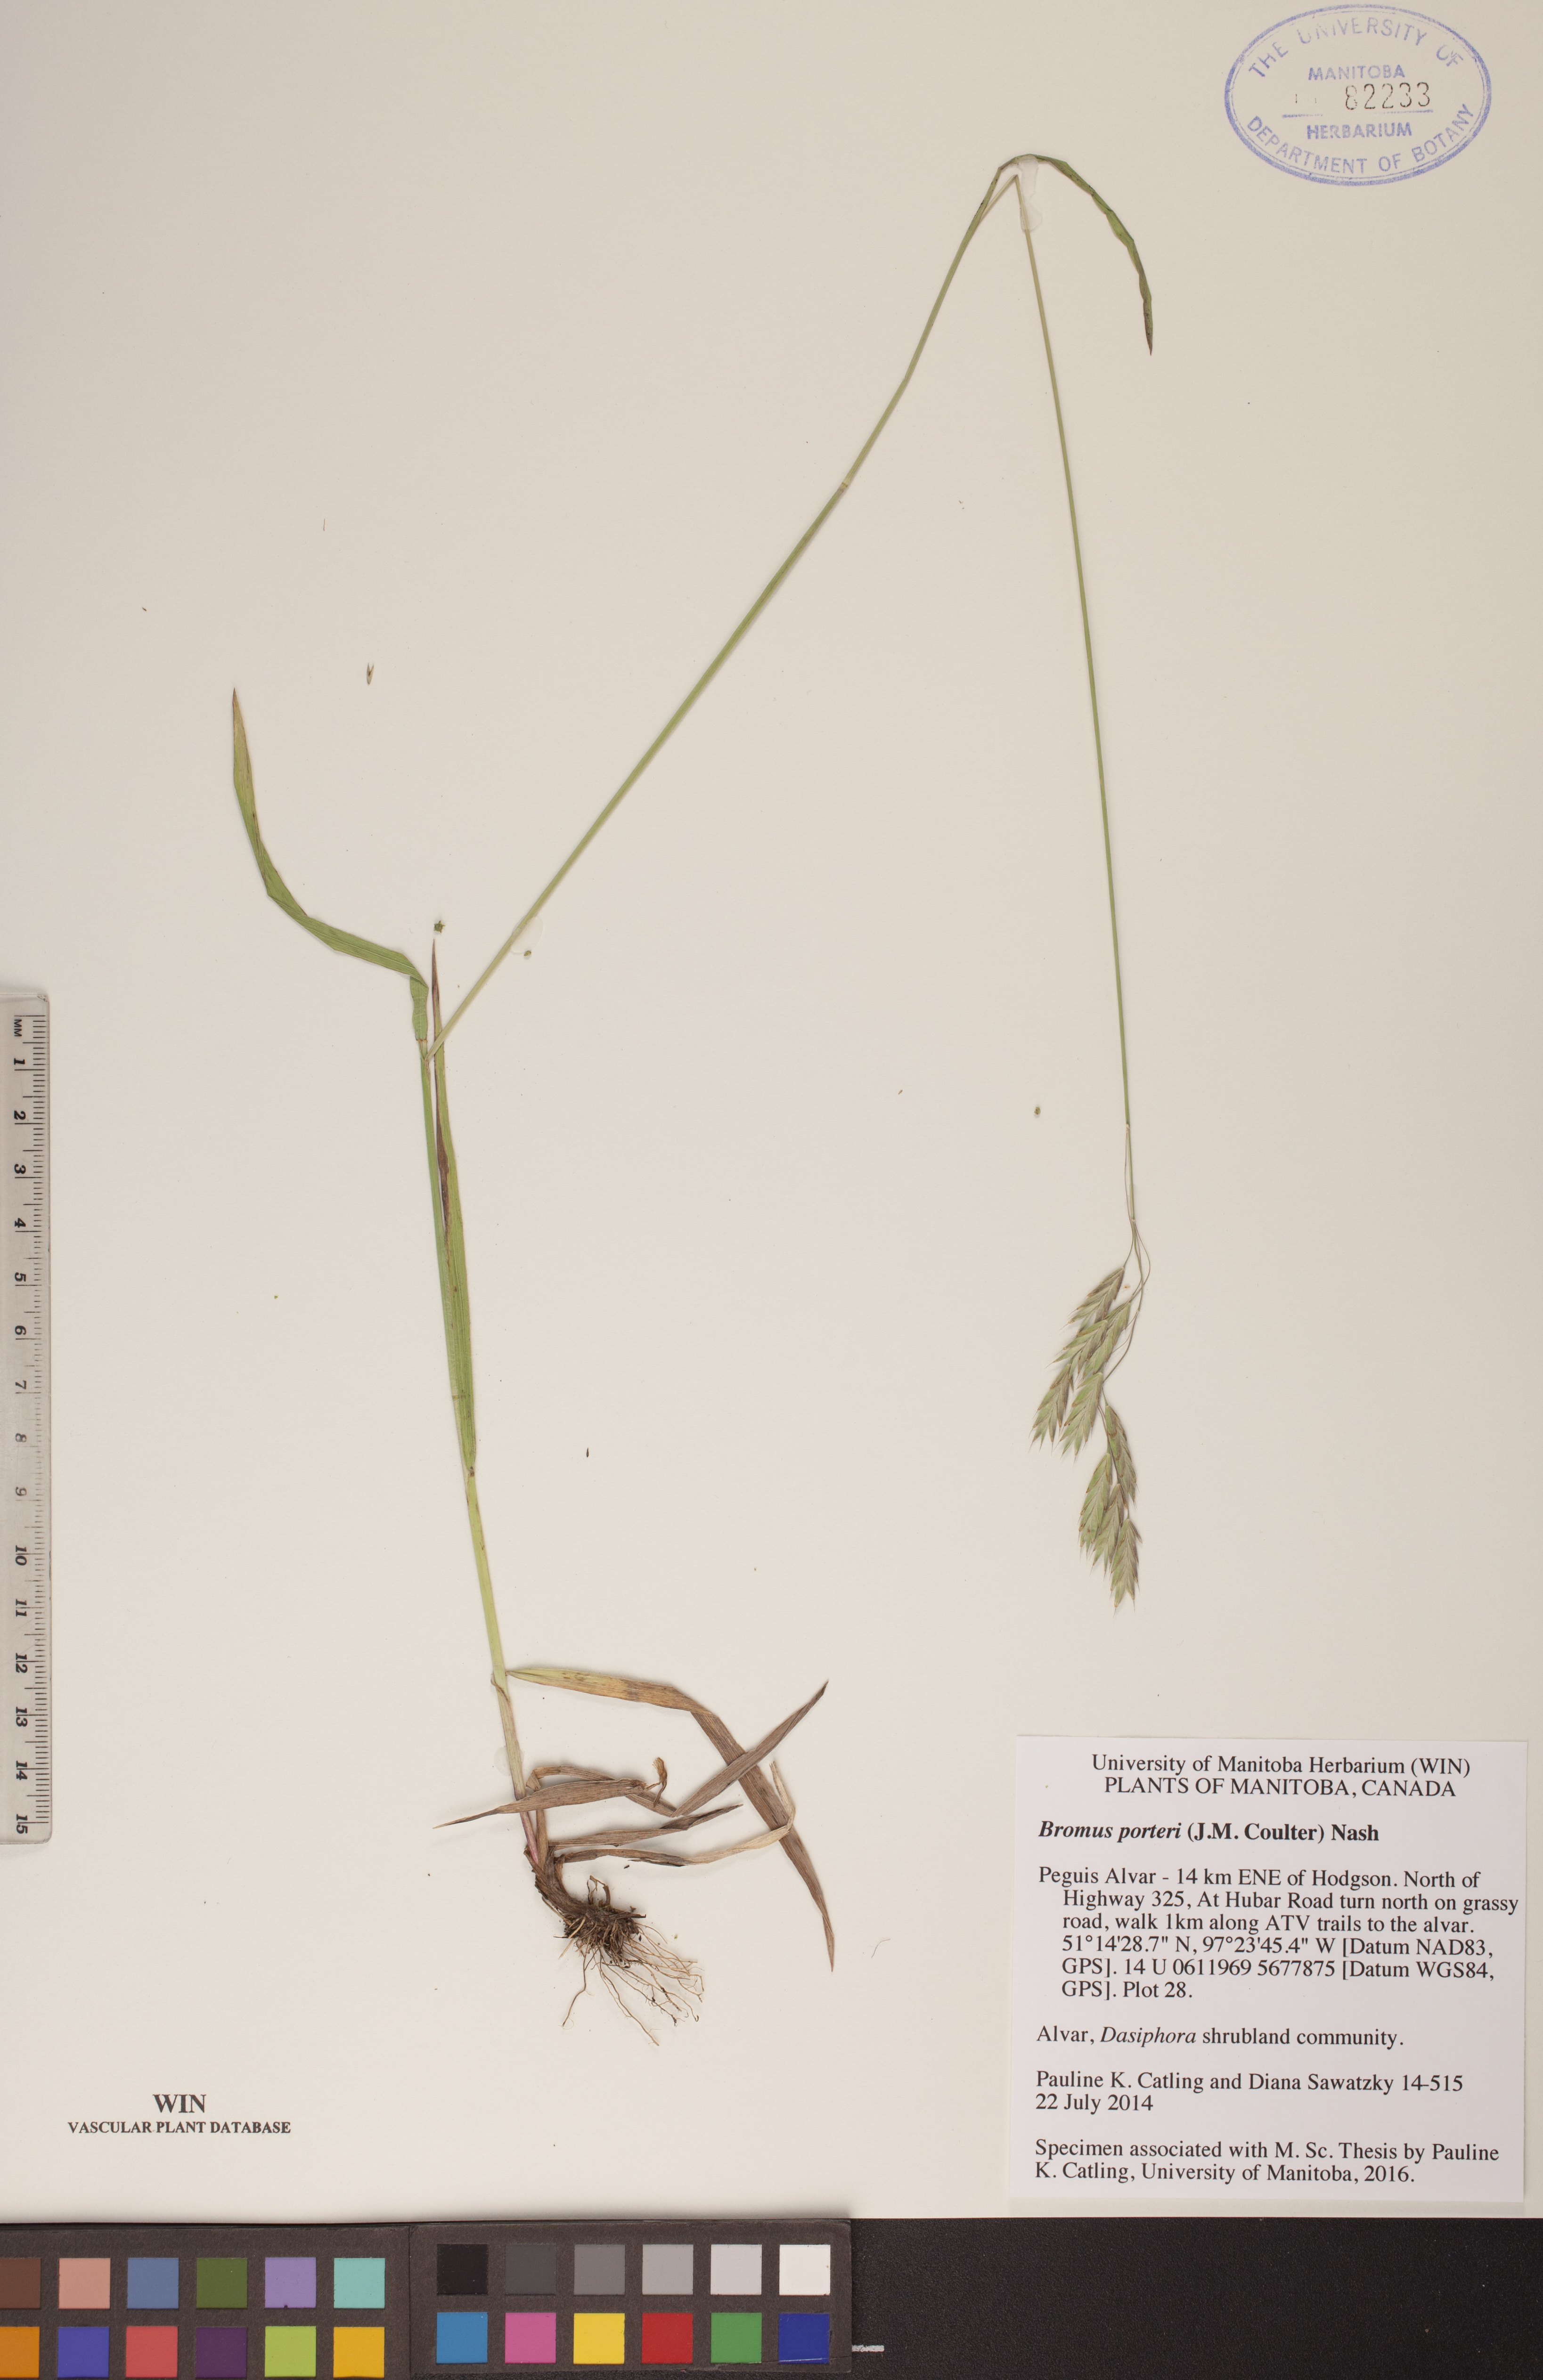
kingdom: Plantae
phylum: Tracheophyta
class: Liliopsida
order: Poales
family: Poaceae
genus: Bromus
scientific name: Bromus porteri
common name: Nodding brome
